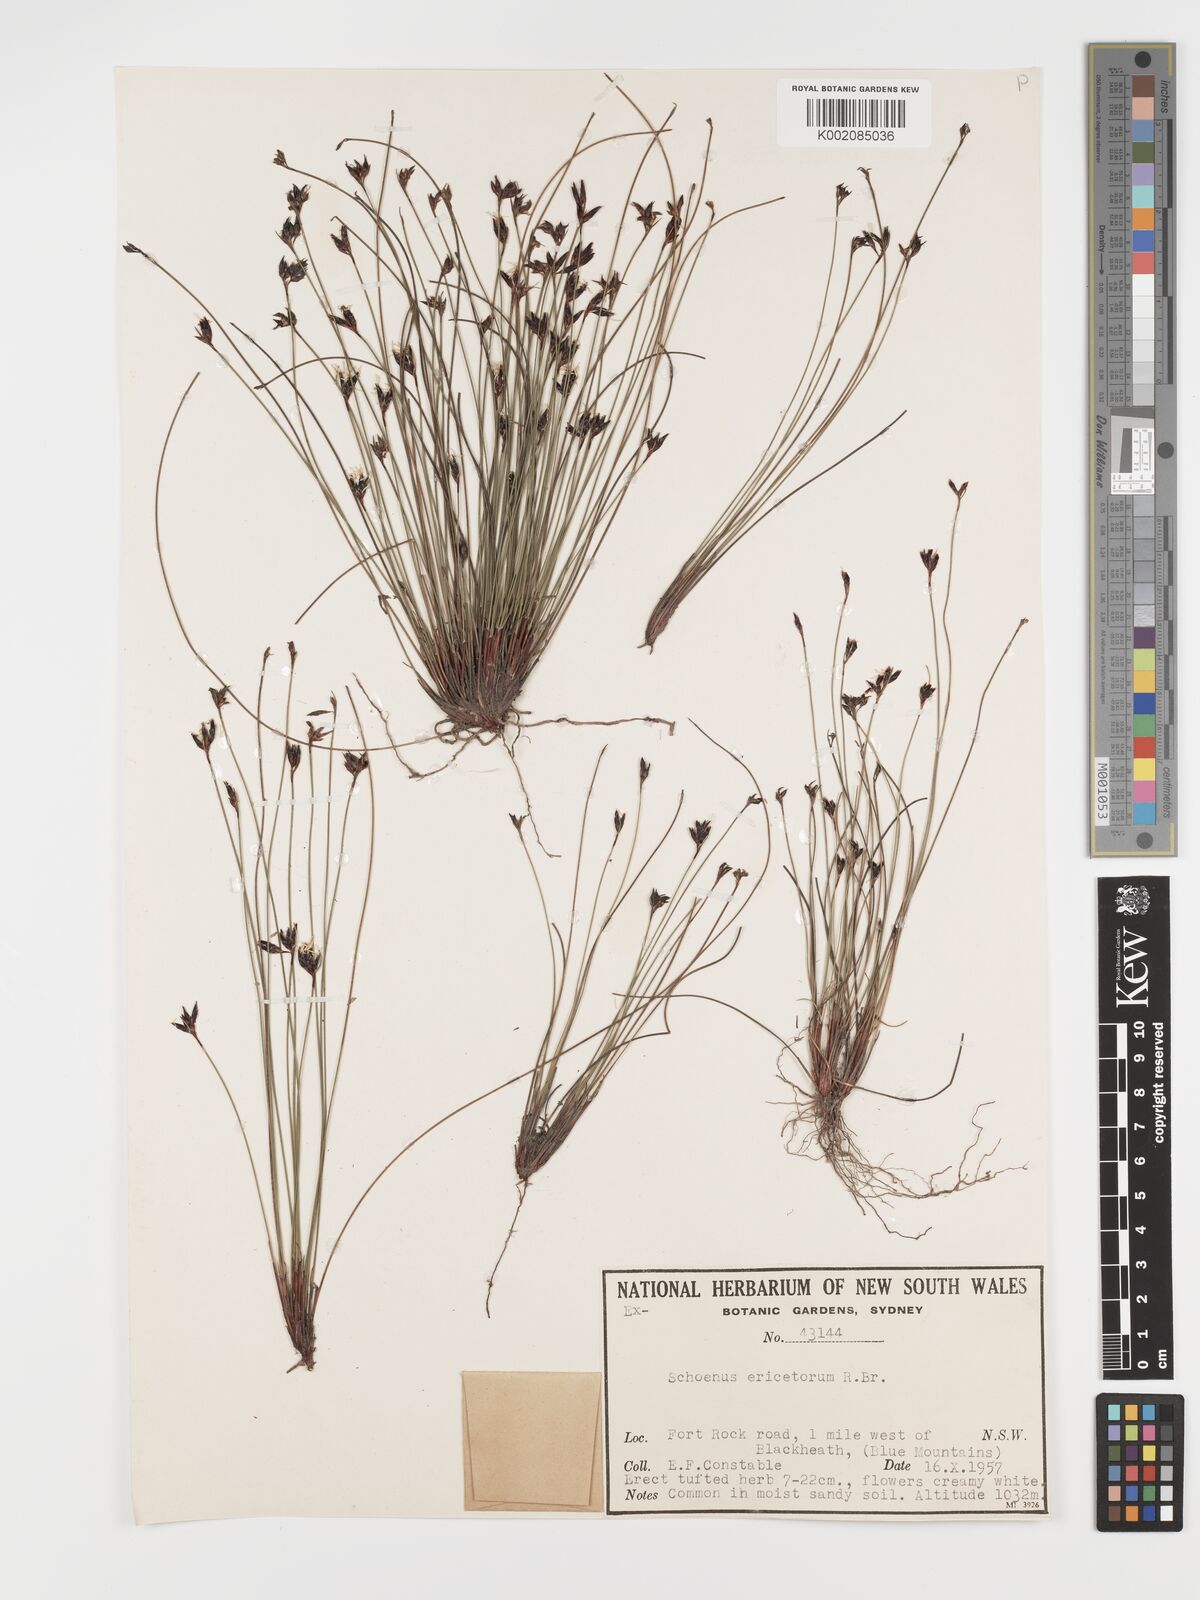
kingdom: Plantae
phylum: Tracheophyta
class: Liliopsida
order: Poales
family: Cyperaceae
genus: Schoenus
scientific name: Schoenus ericetorum
